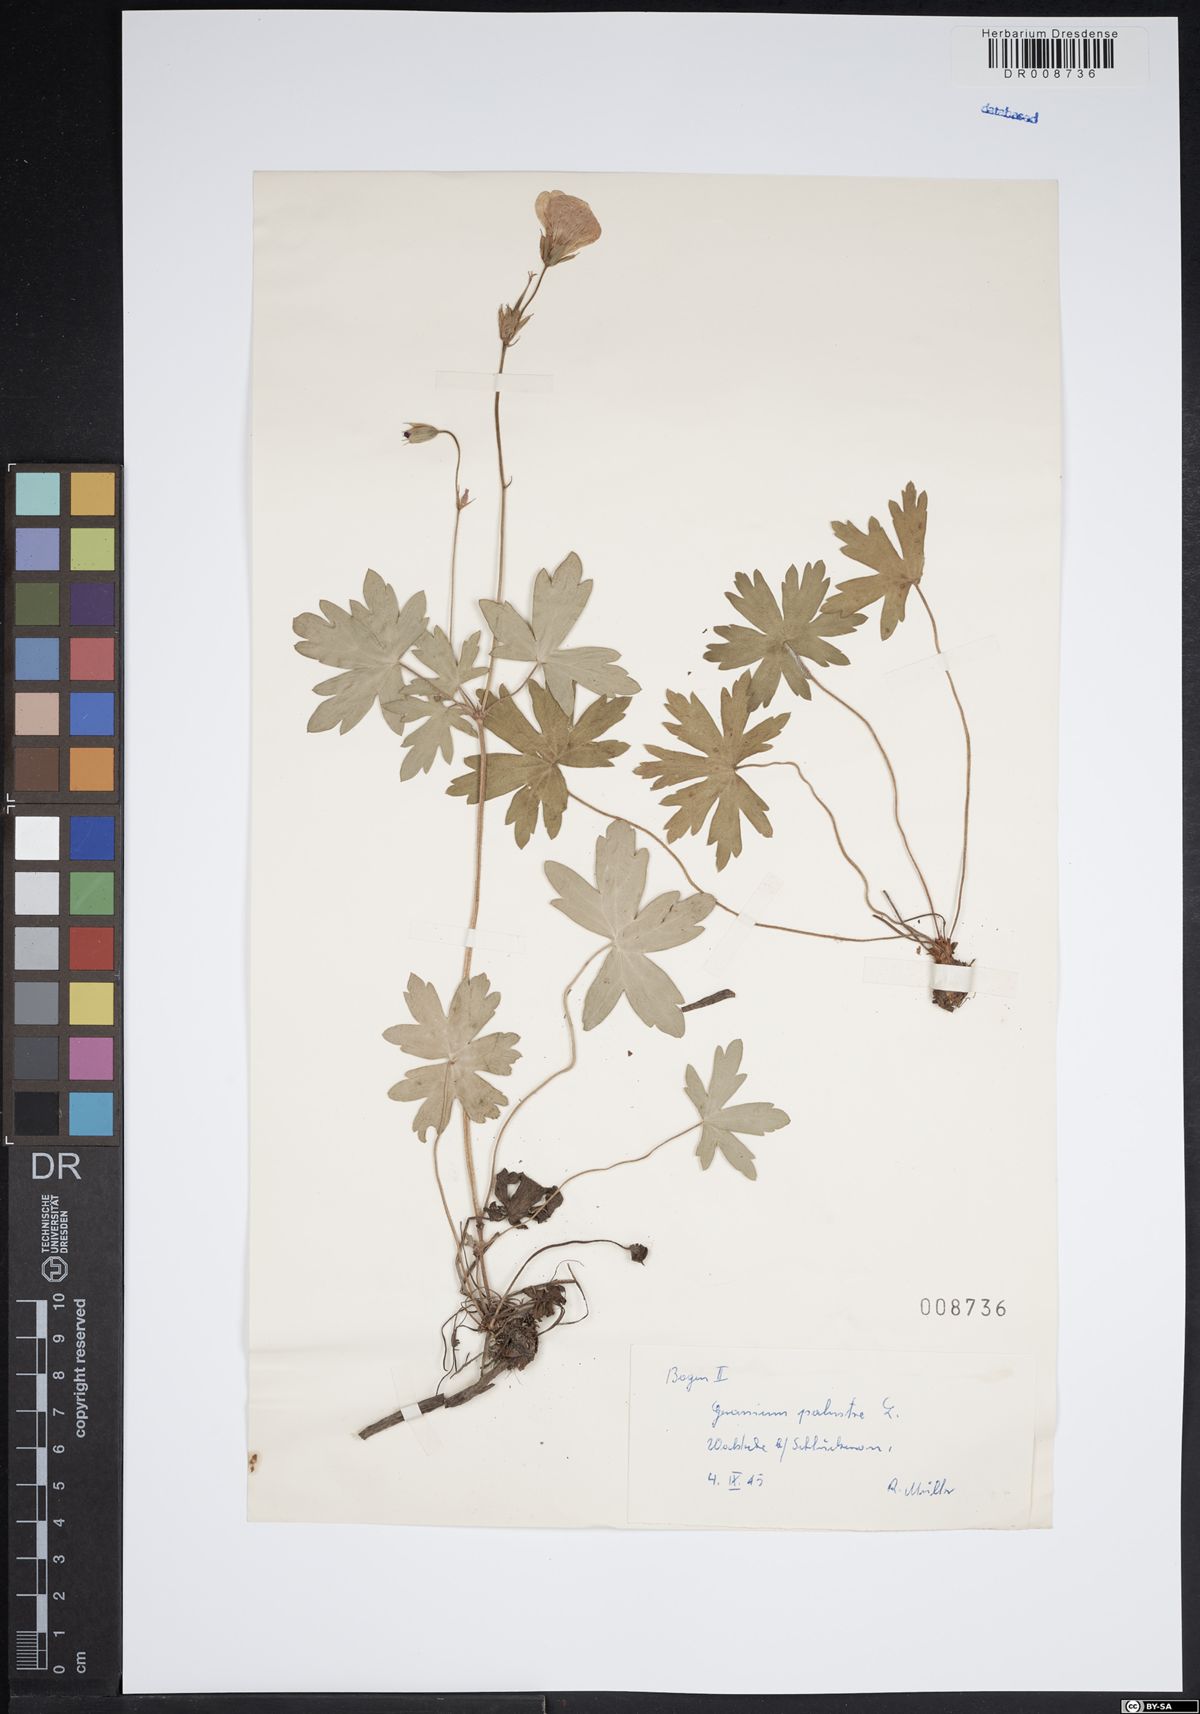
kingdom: Plantae
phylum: Tracheophyta
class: Magnoliopsida
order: Geraniales
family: Geraniaceae
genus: Geranium
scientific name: Geranium palustre
